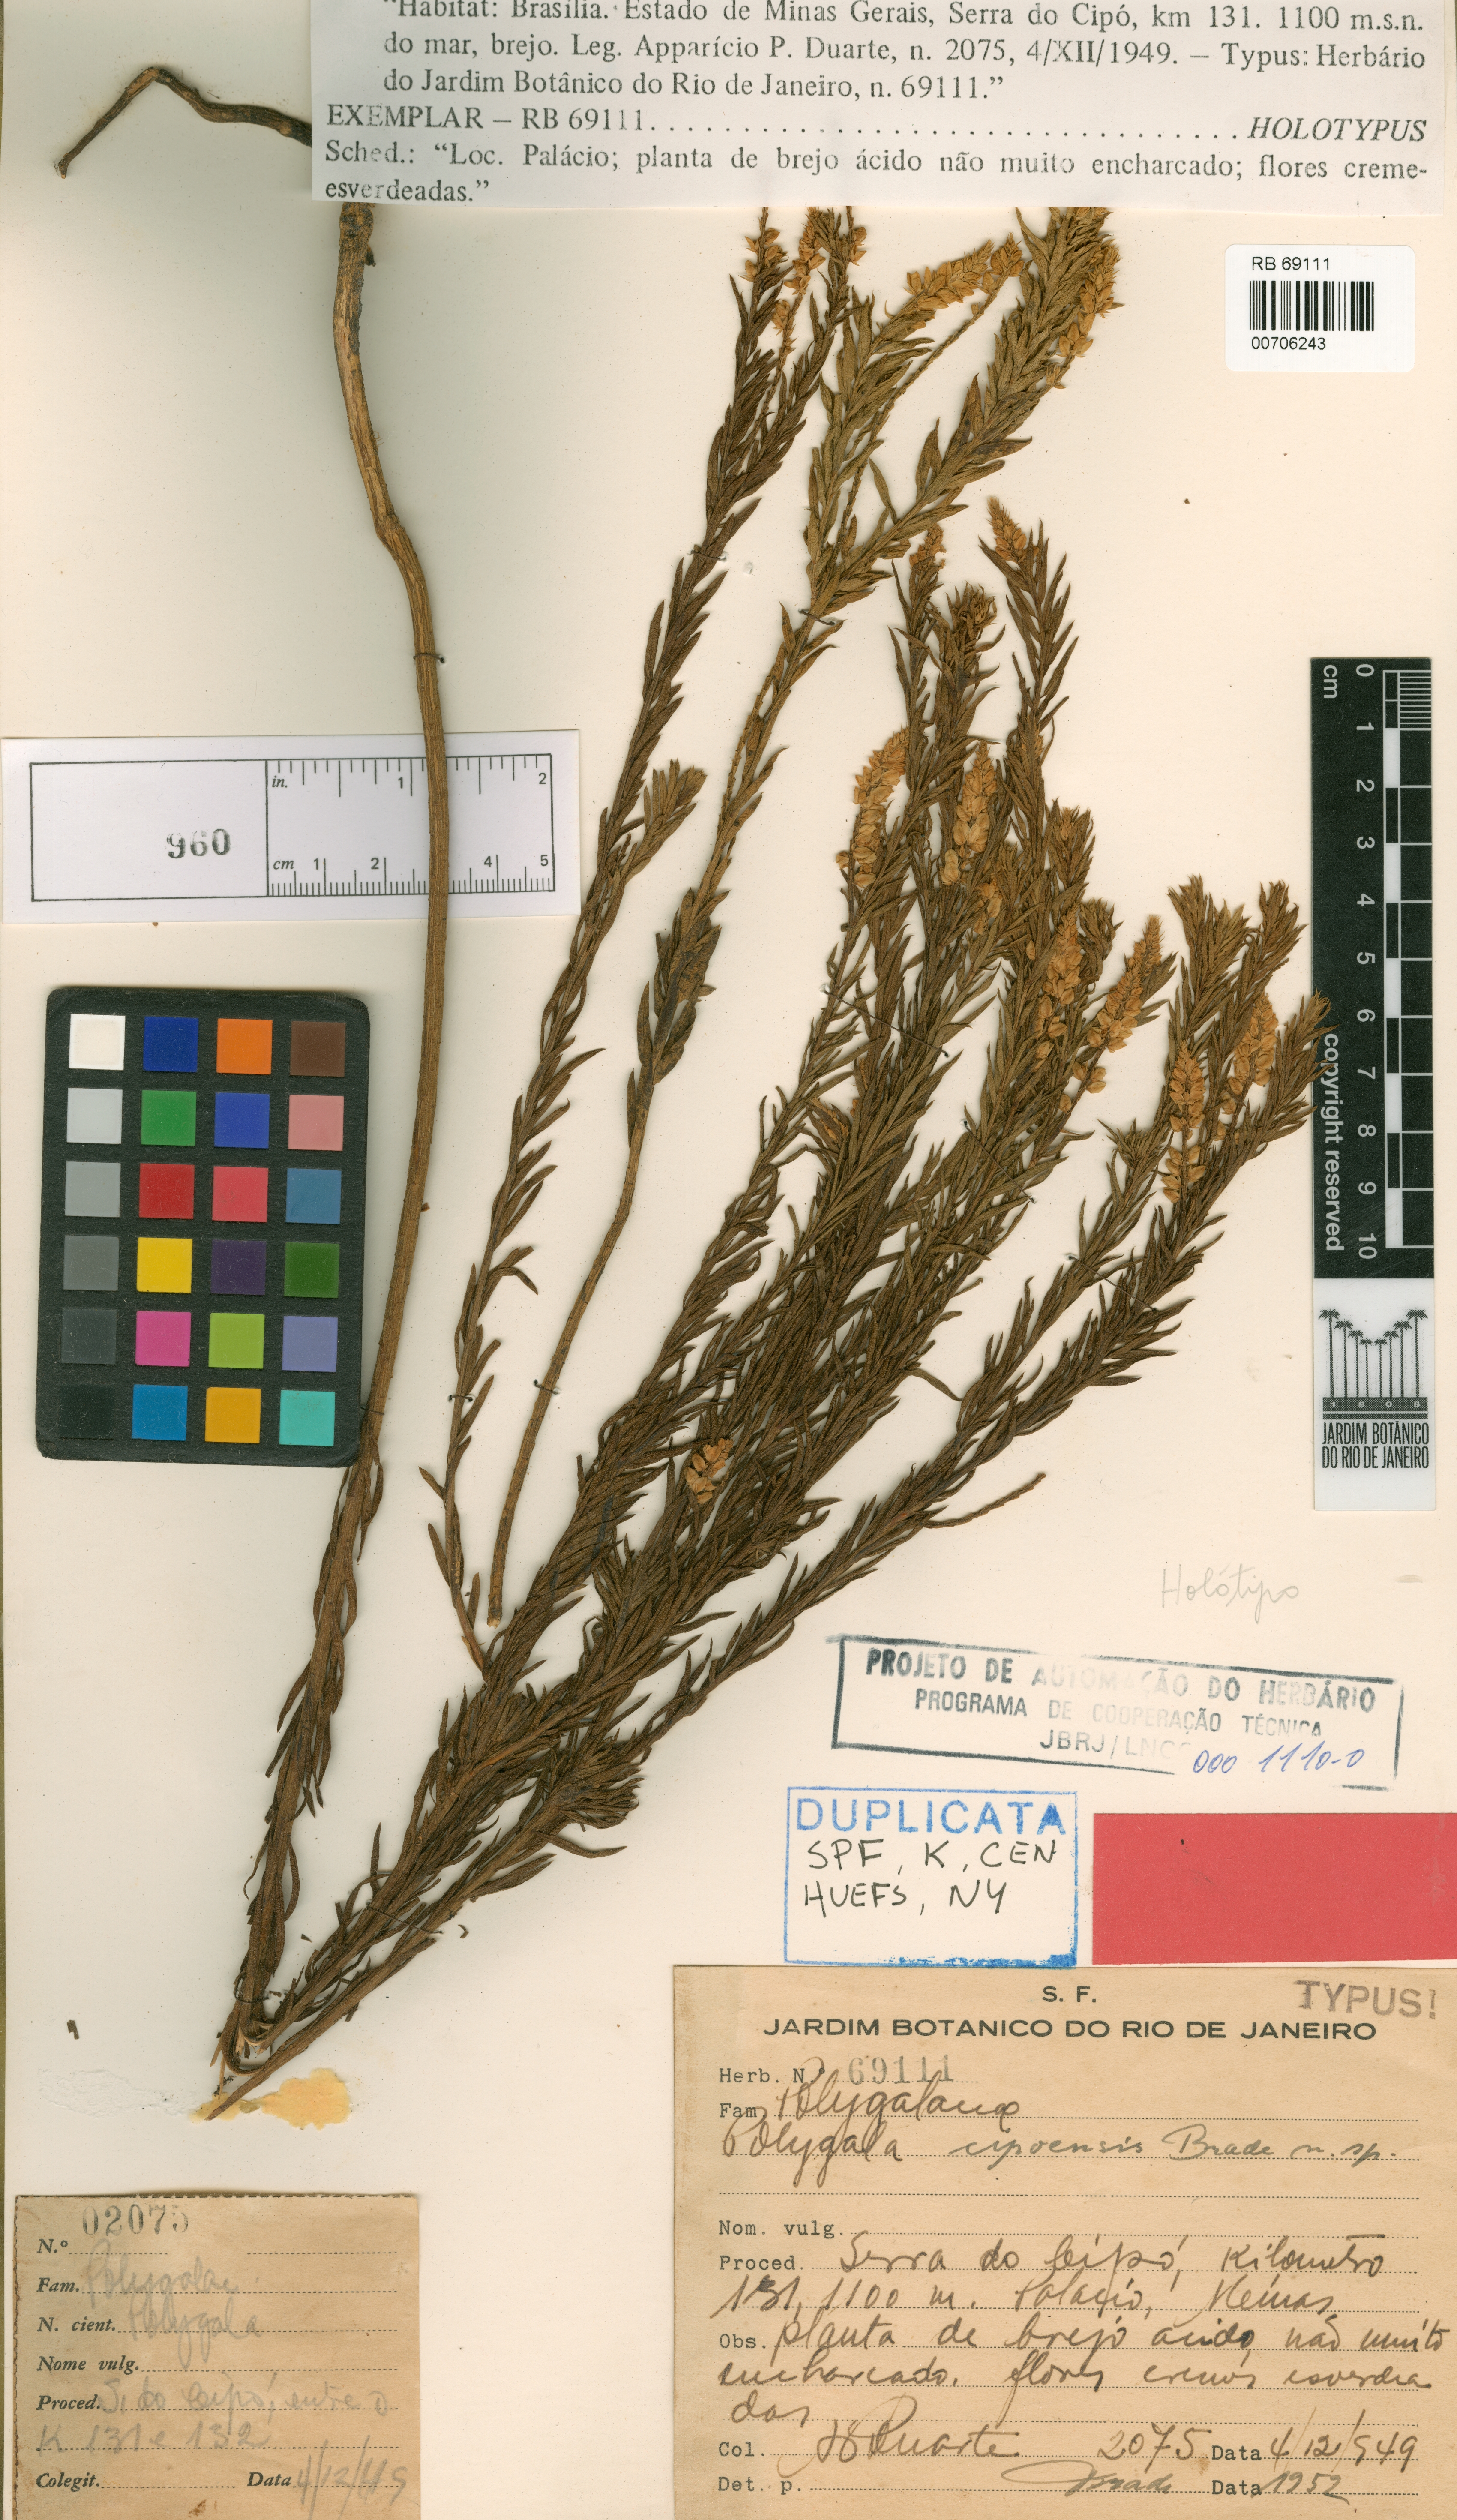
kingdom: Plantae
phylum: Tracheophyta
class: Magnoliopsida
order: Fabales
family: Polygalaceae
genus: Polygala
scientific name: Polygala densifolia
